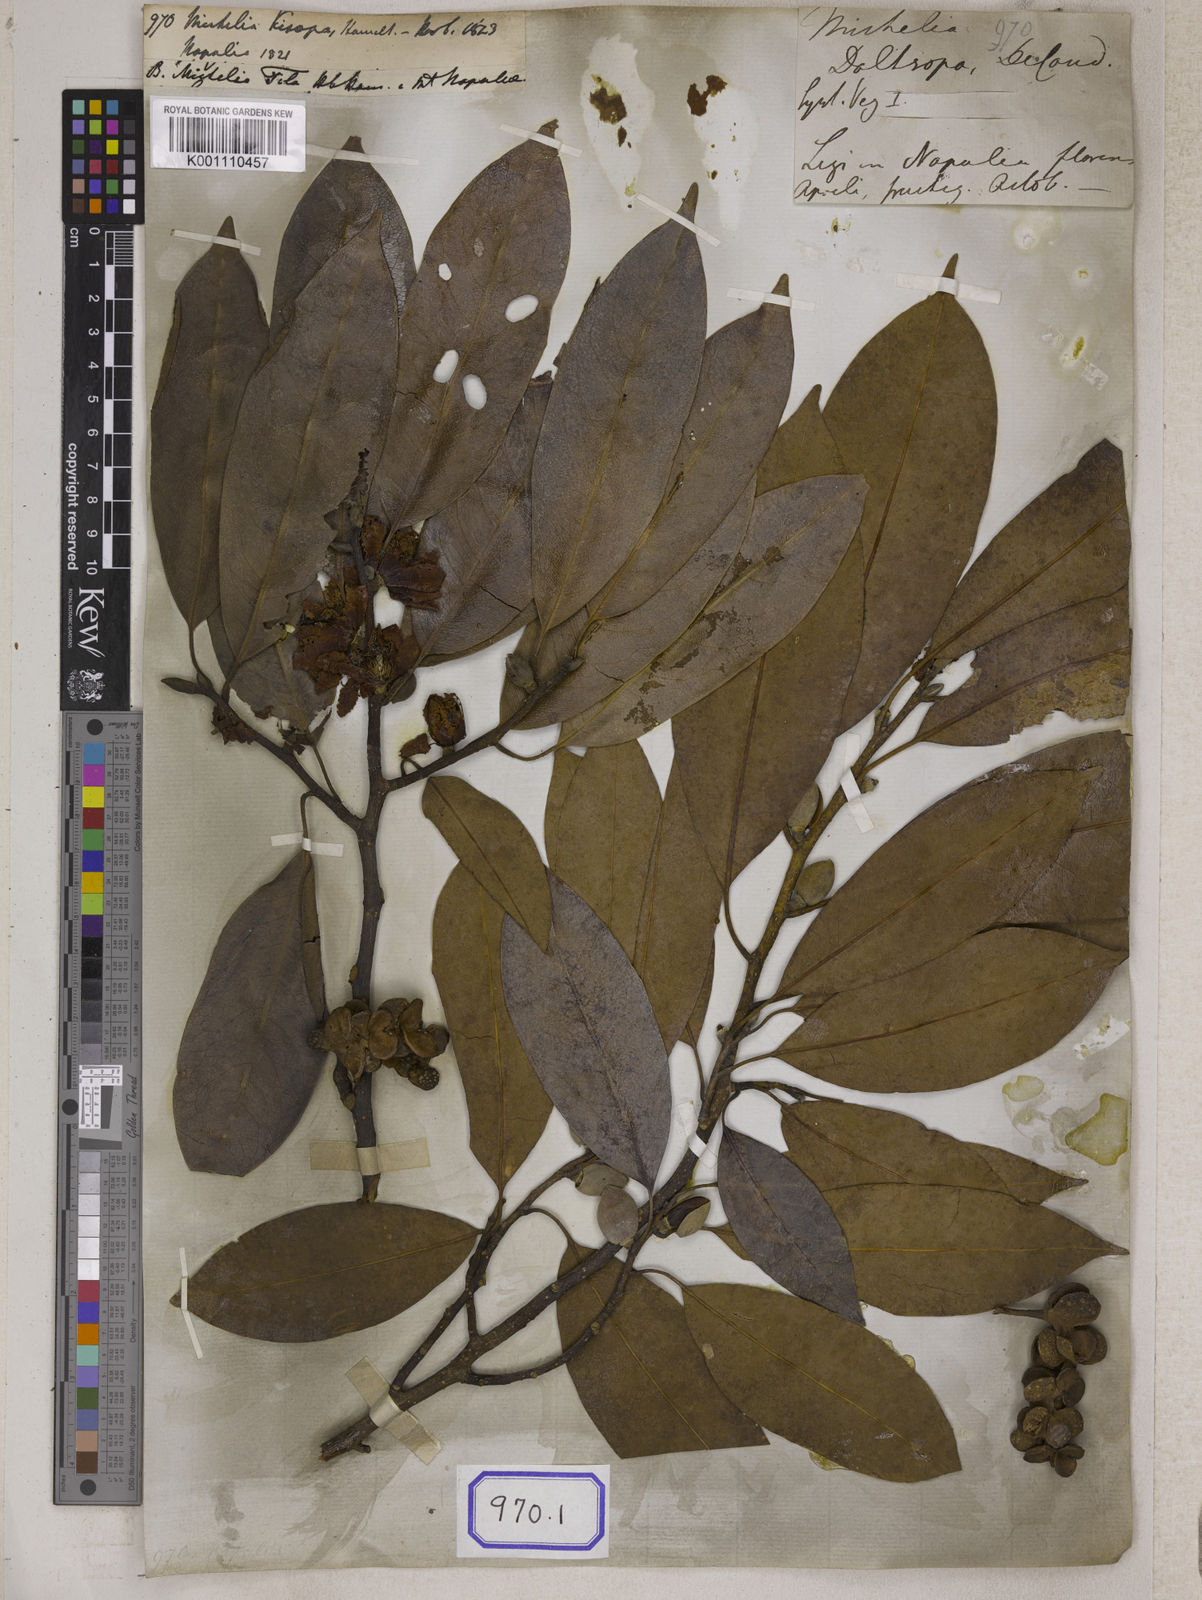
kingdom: Plantae
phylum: Tracheophyta
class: Magnoliopsida
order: Magnoliales
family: Magnoliaceae
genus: Michelia
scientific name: Michelia
